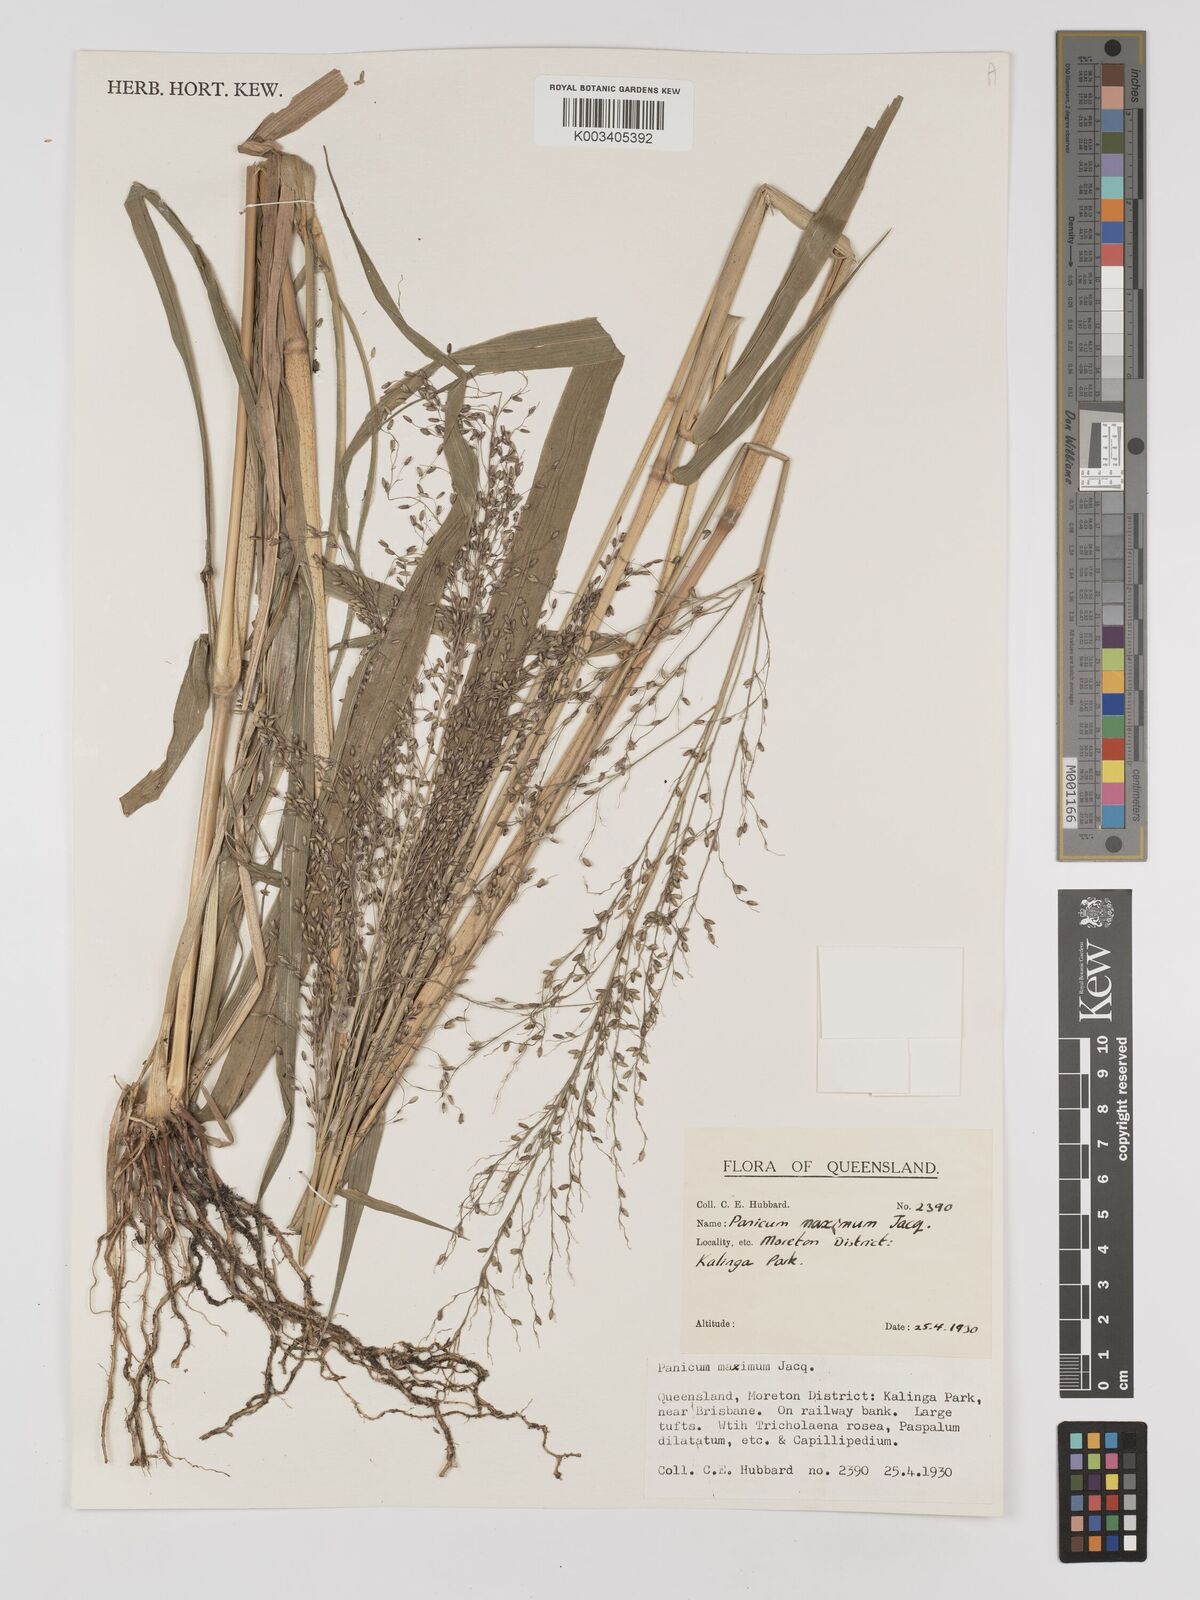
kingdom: Plantae
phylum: Tracheophyta
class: Liliopsida
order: Poales
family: Poaceae
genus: Megathyrsus
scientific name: Megathyrsus maximus
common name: Guineagrass
